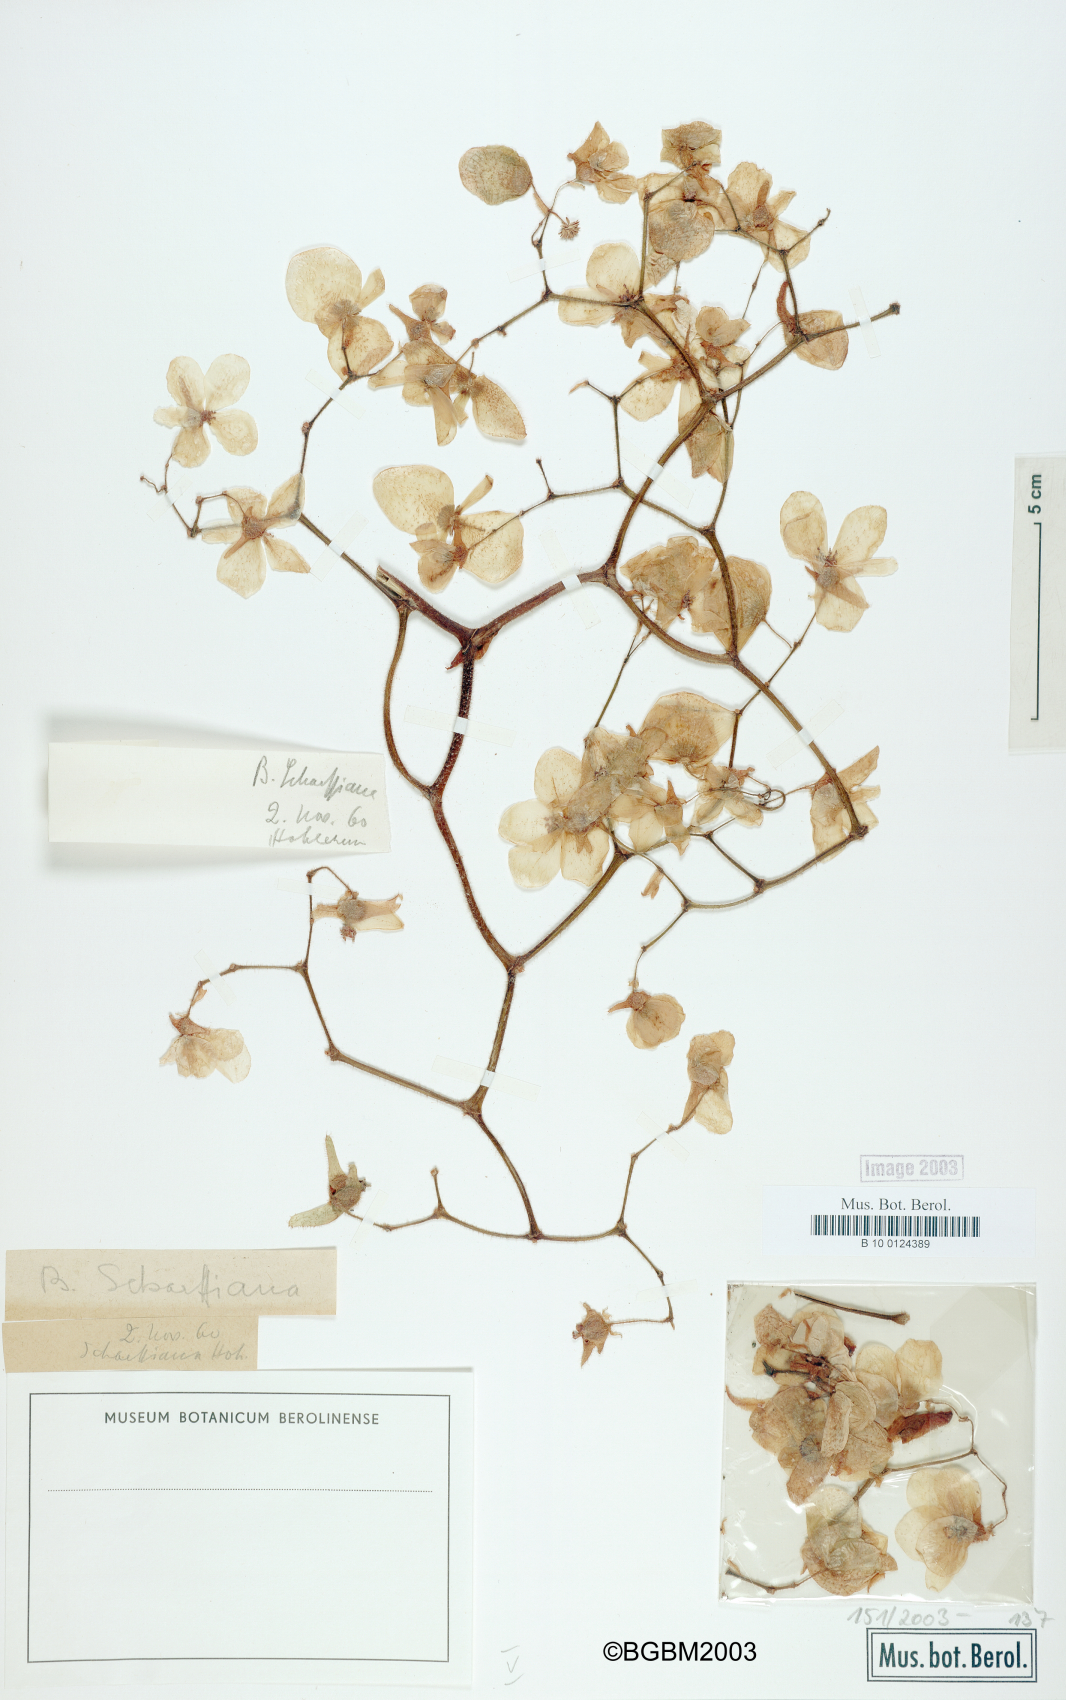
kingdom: Plantae
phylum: Tracheophyta
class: Magnoliopsida
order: Cucurbitales
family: Begoniaceae
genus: Begonia
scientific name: Begonia scharffiana
